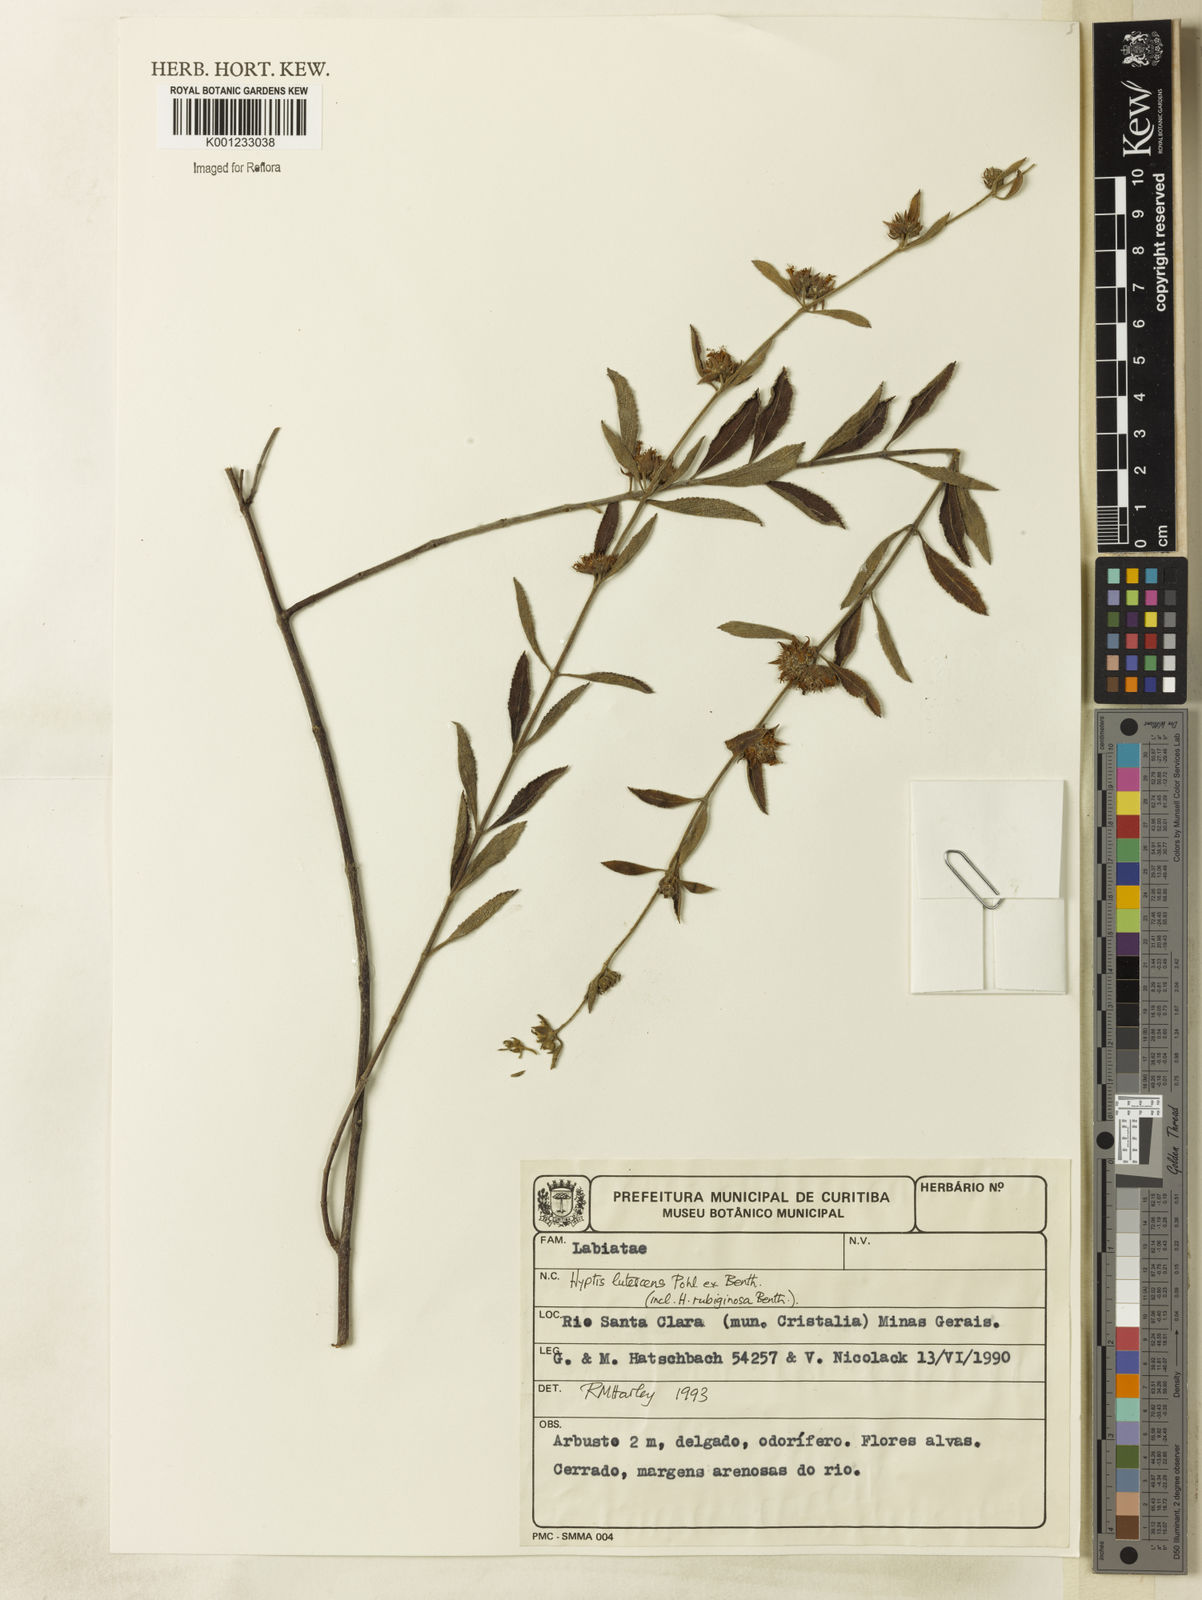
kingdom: Plantae
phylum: Tracheophyta
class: Magnoliopsida
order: Lamiales
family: Lamiaceae
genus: Hyptis
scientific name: Hyptis lutescens
